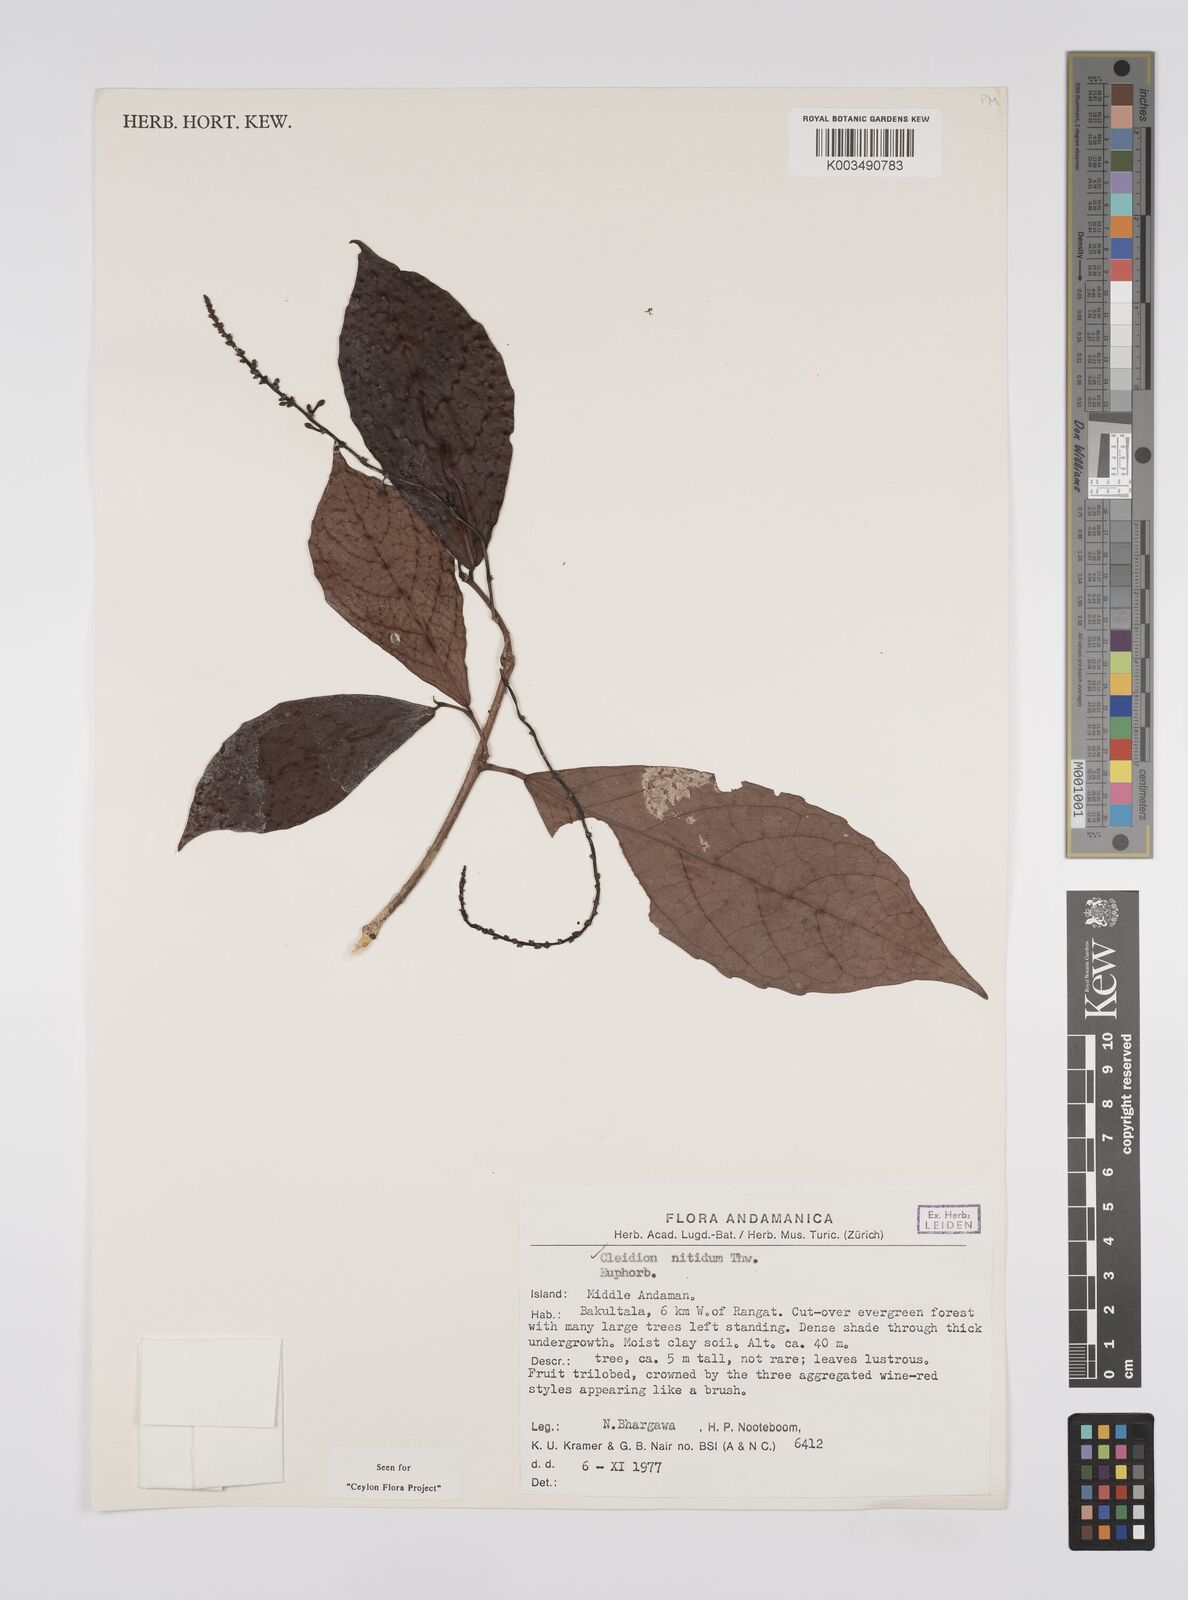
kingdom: Plantae
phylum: Tracheophyta
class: Magnoliopsida
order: Malpighiales
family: Euphorbiaceae
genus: Cleidion
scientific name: Cleidion nitidum
